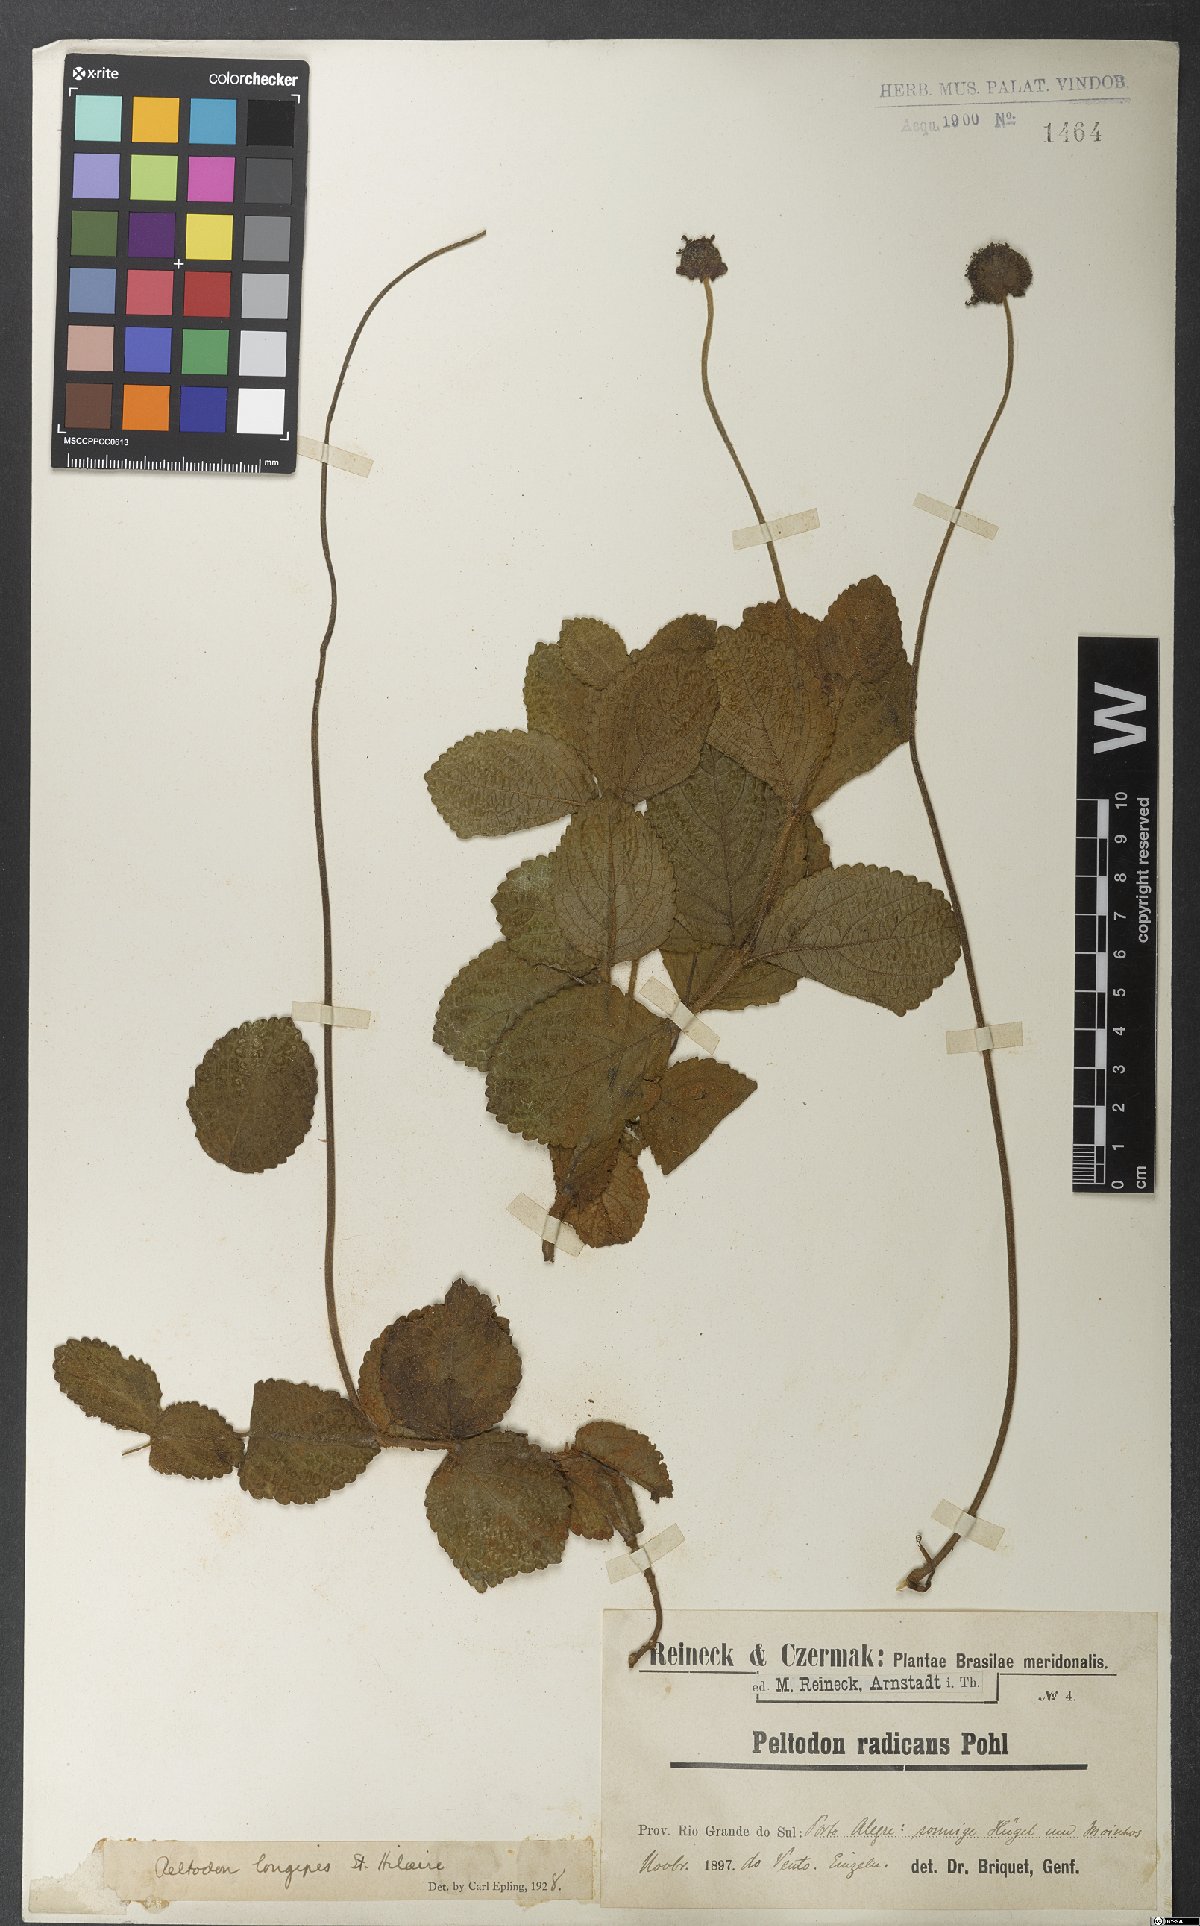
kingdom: Plantae
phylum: Tracheophyta
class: Magnoliopsida
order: Lamiales
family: Lamiaceae
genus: Hyptis
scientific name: Hyptis comaroides
